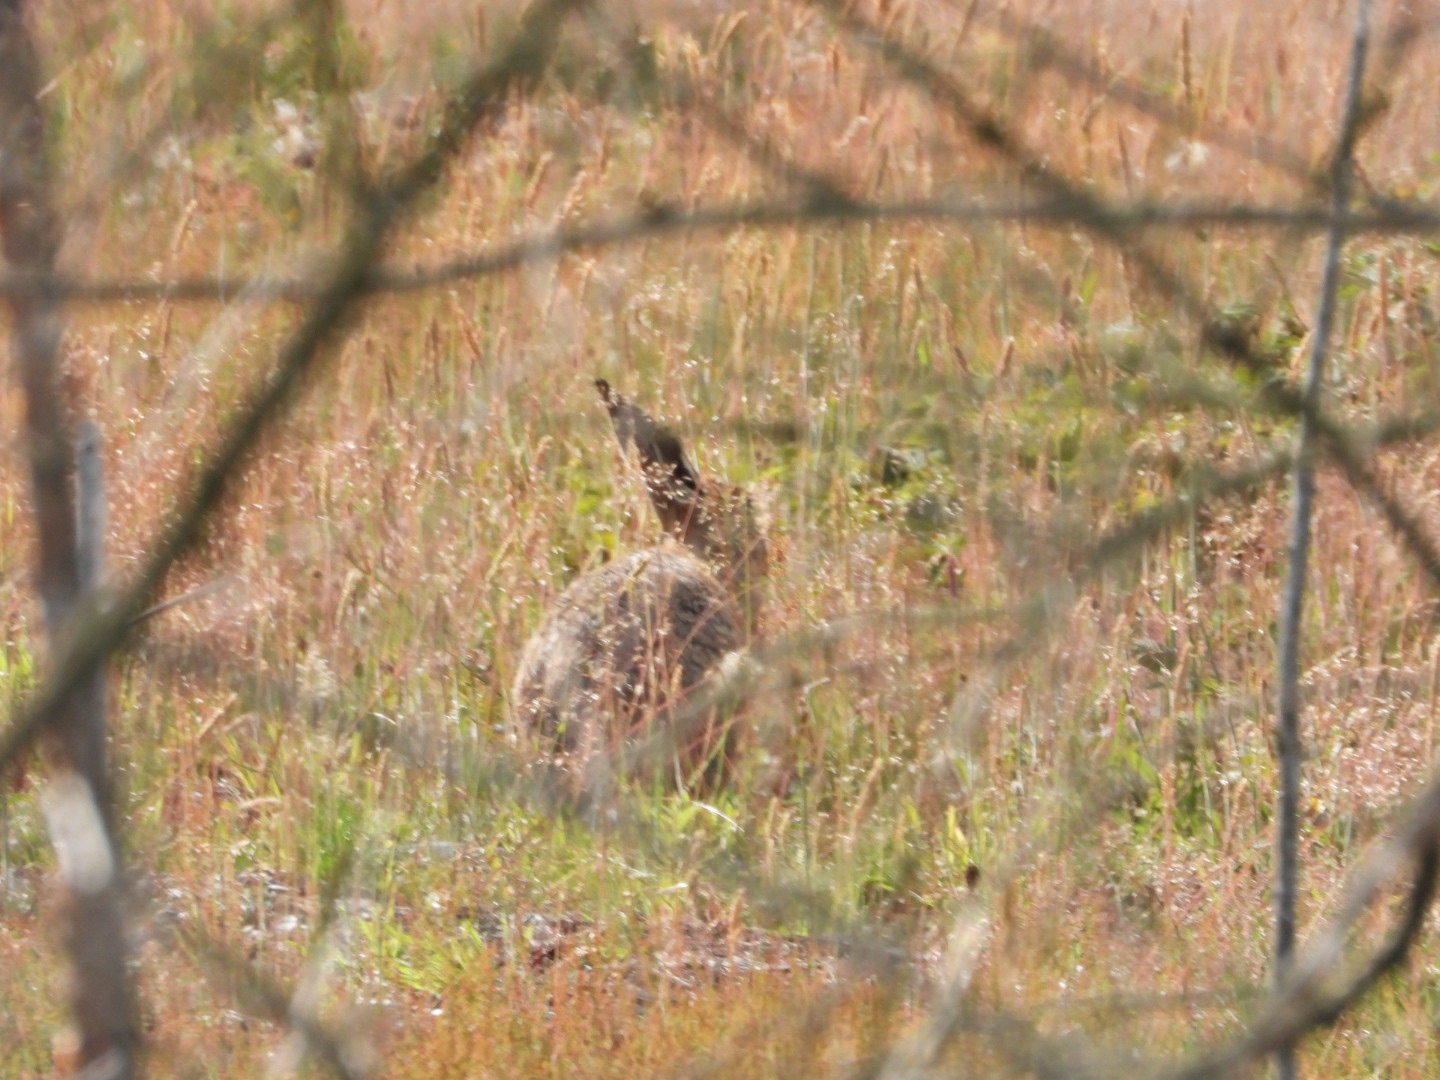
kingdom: Animalia
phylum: Chordata
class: Mammalia
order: Lagomorpha
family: Leporidae
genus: Lepus
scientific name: Lepus europaeus
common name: Hare
